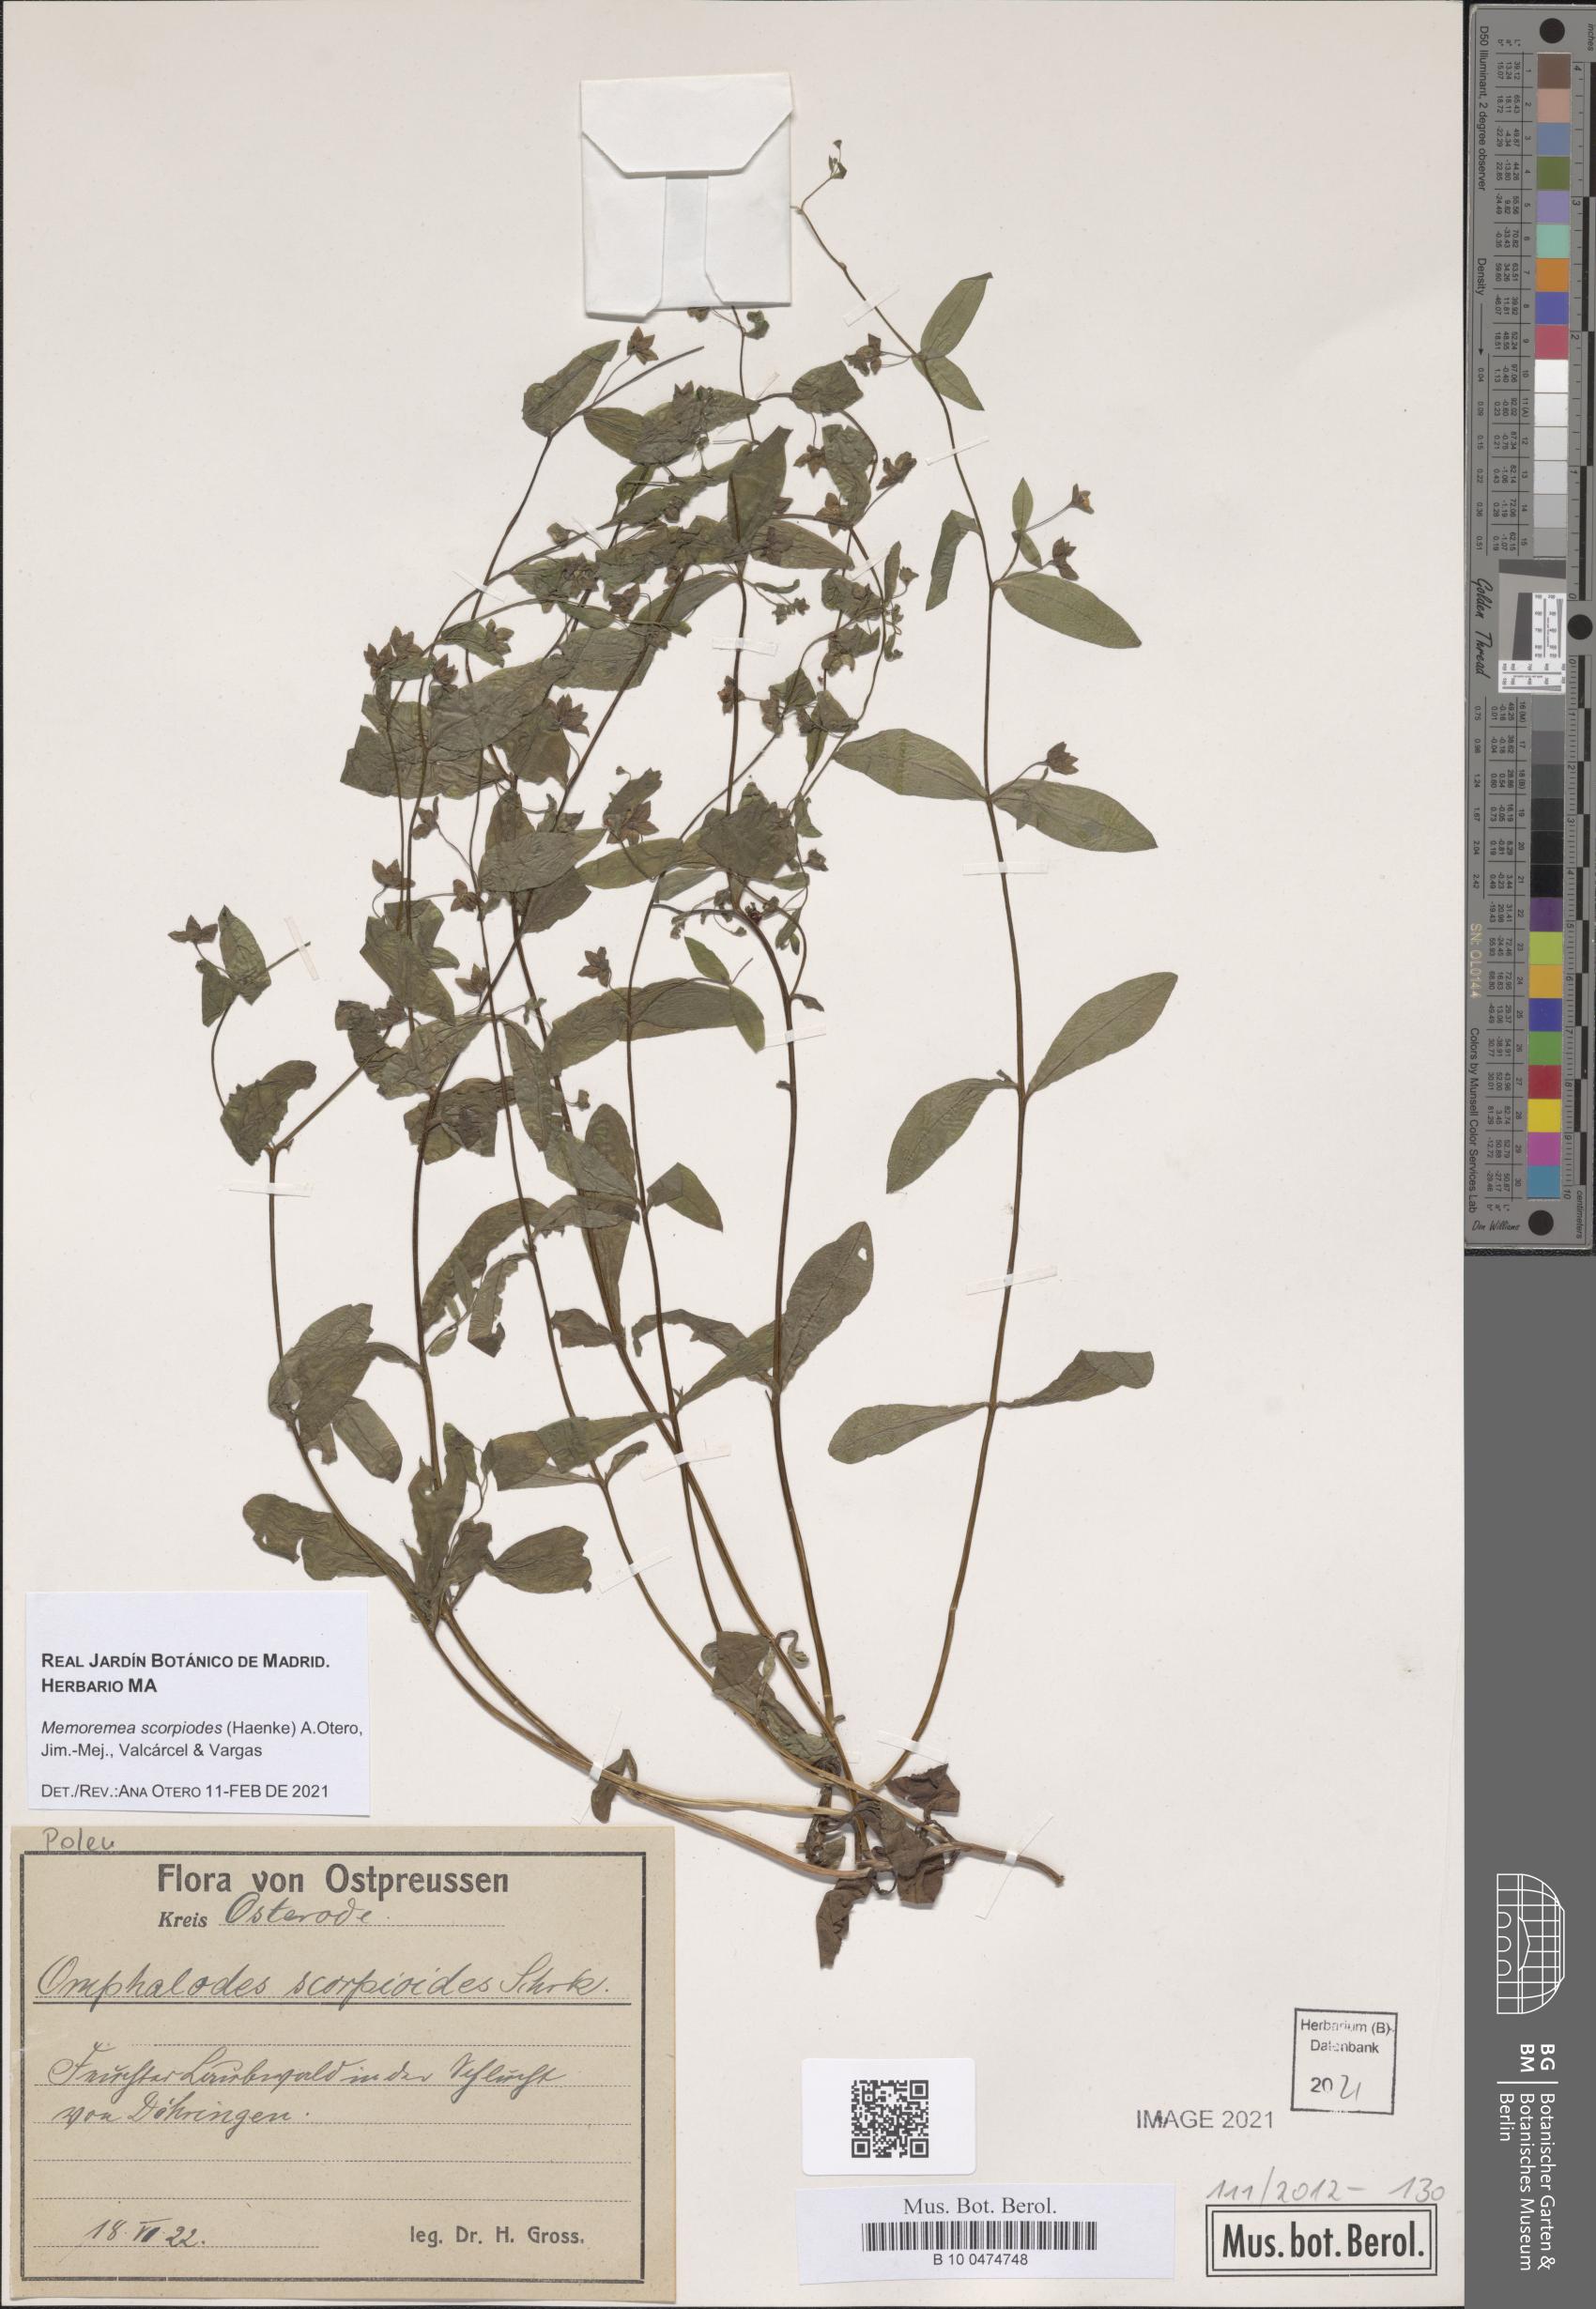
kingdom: Plantae
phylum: Tracheophyta
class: Magnoliopsida
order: Boraginales
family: Boraginaceae
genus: Memoremea
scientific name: Memoremea scorpioides
